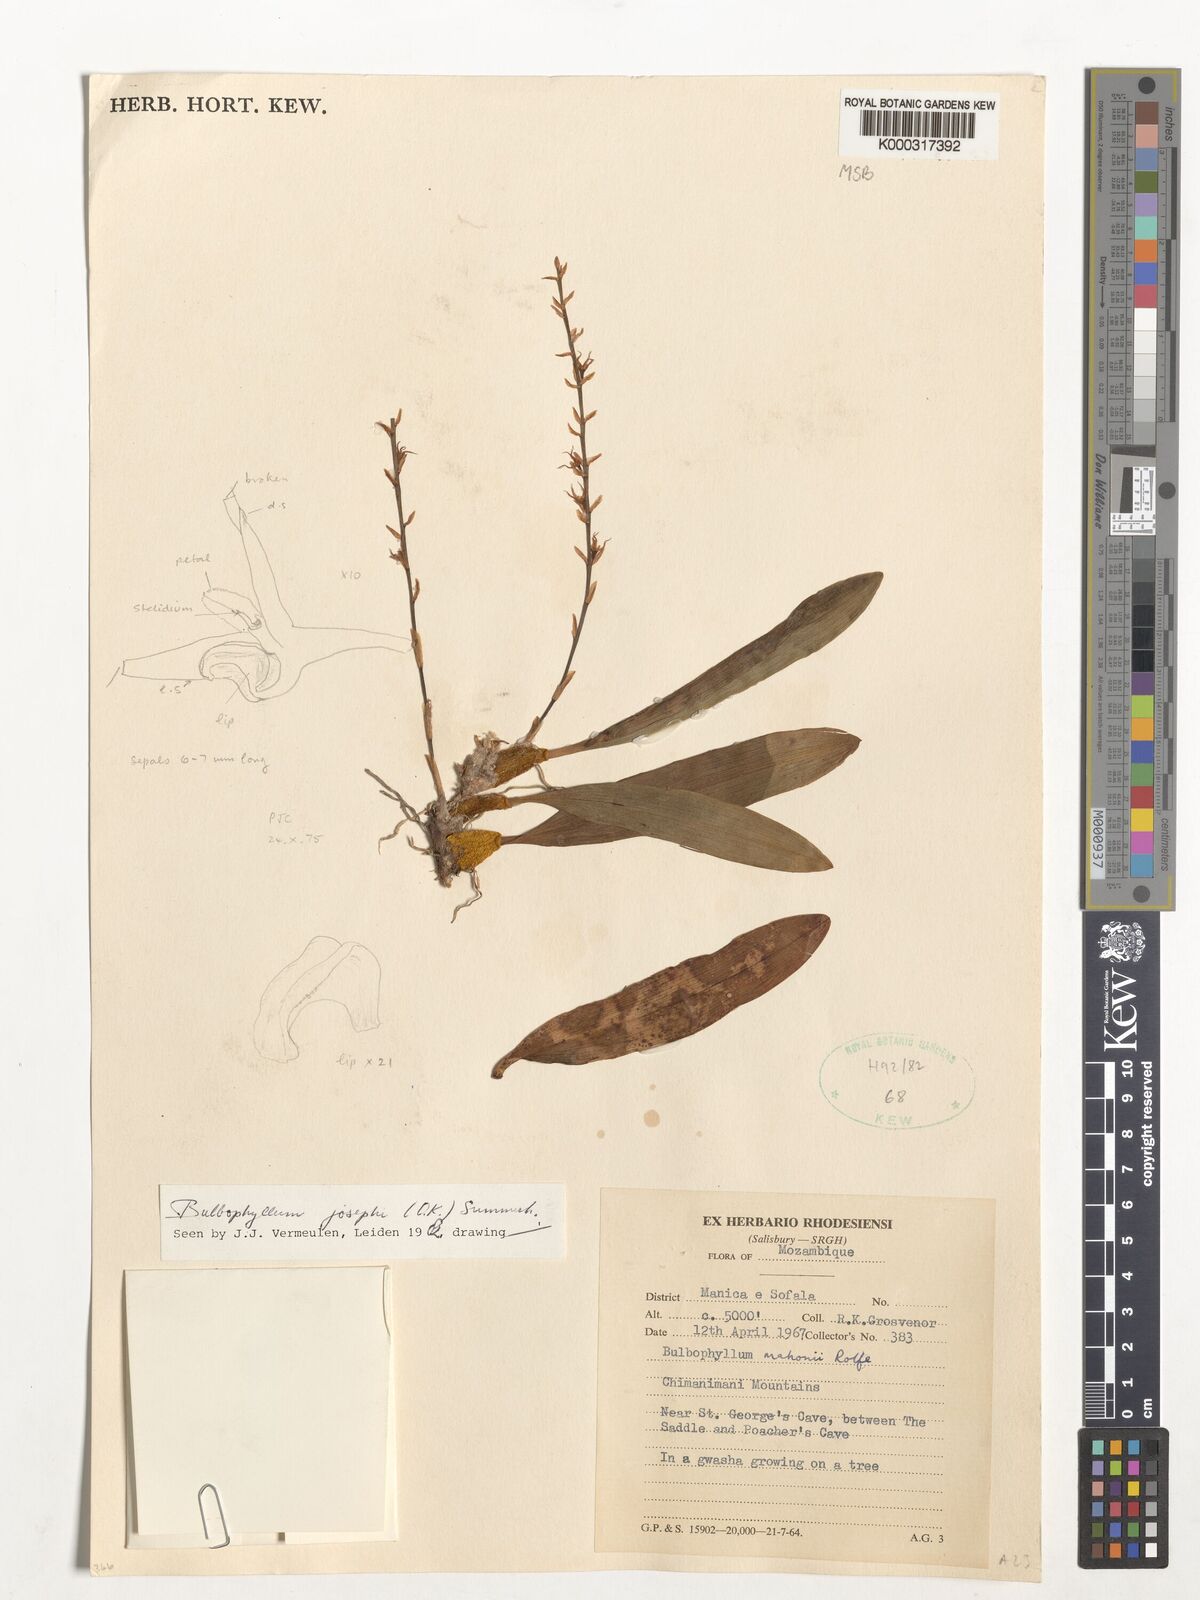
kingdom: Plantae
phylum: Tracheophyta
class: Liliopsida
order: Asparagales
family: Orchidaceae
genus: Bulbophyllum
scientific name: Bulbophyllum josephi
